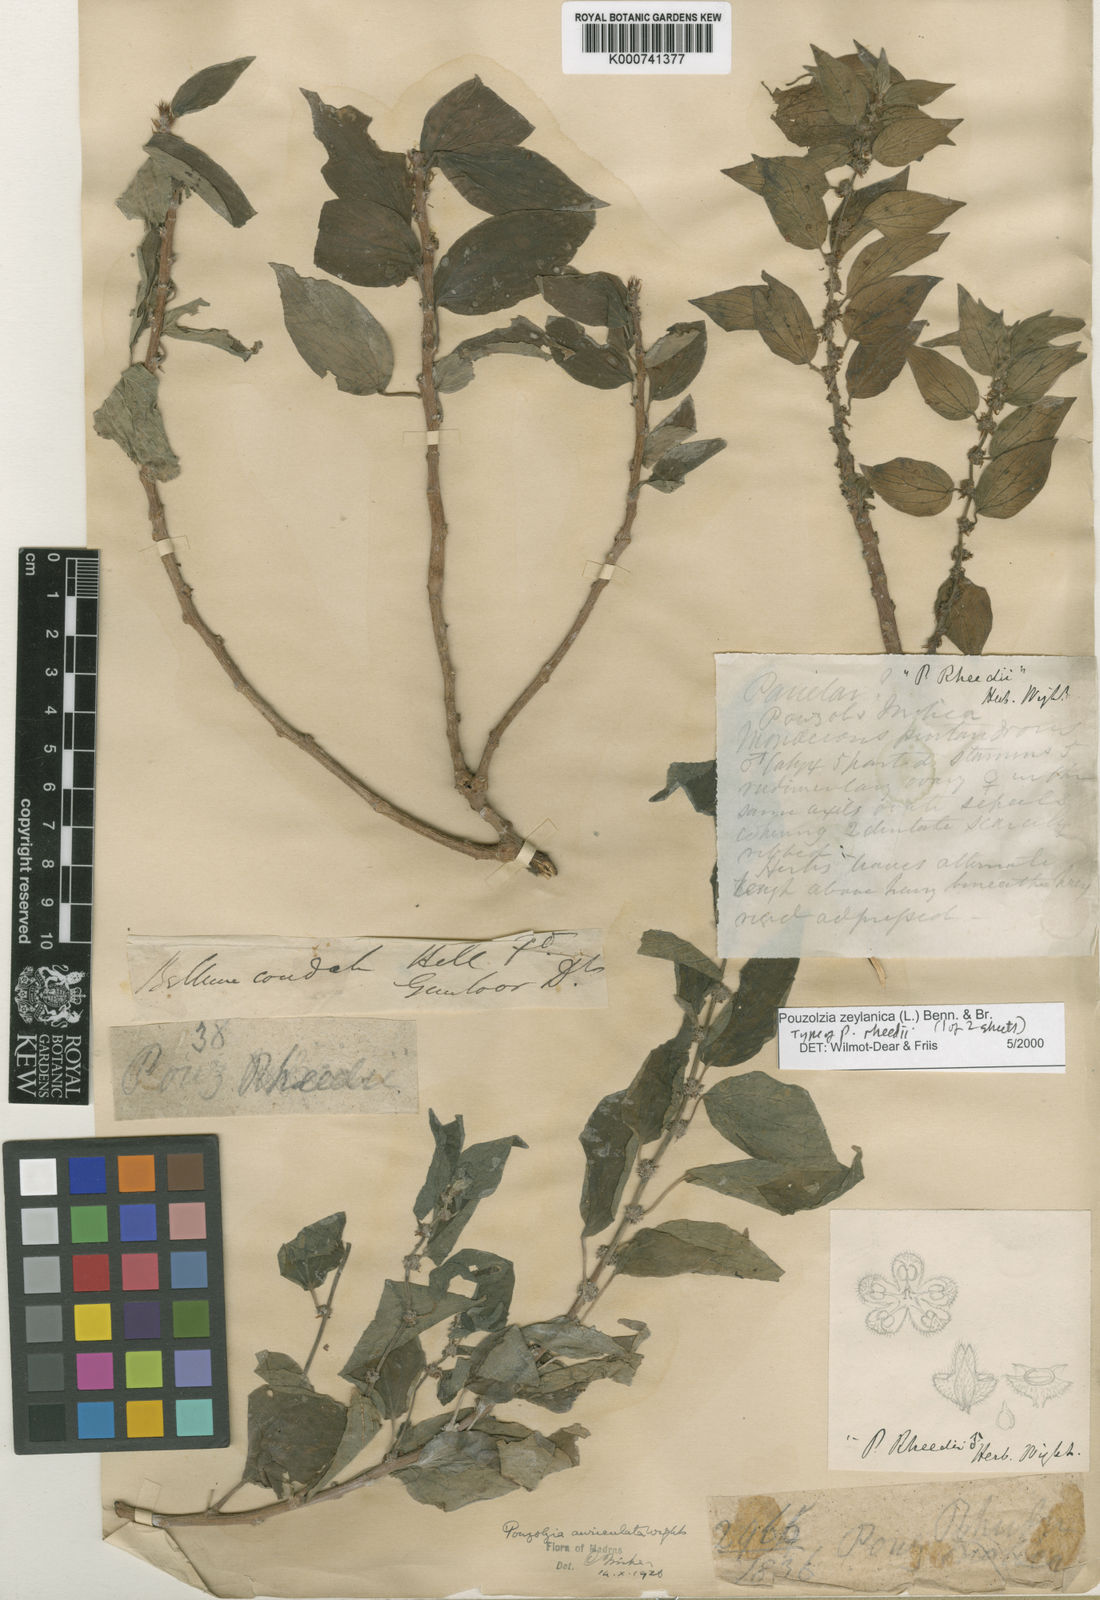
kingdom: Plantae
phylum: Tracheophyta
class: Magnoliopsida
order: Rosales
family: Urticaceae
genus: Pouzolzia
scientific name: Pouzolzia zeylanica
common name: Graceful pouzolzsbush
